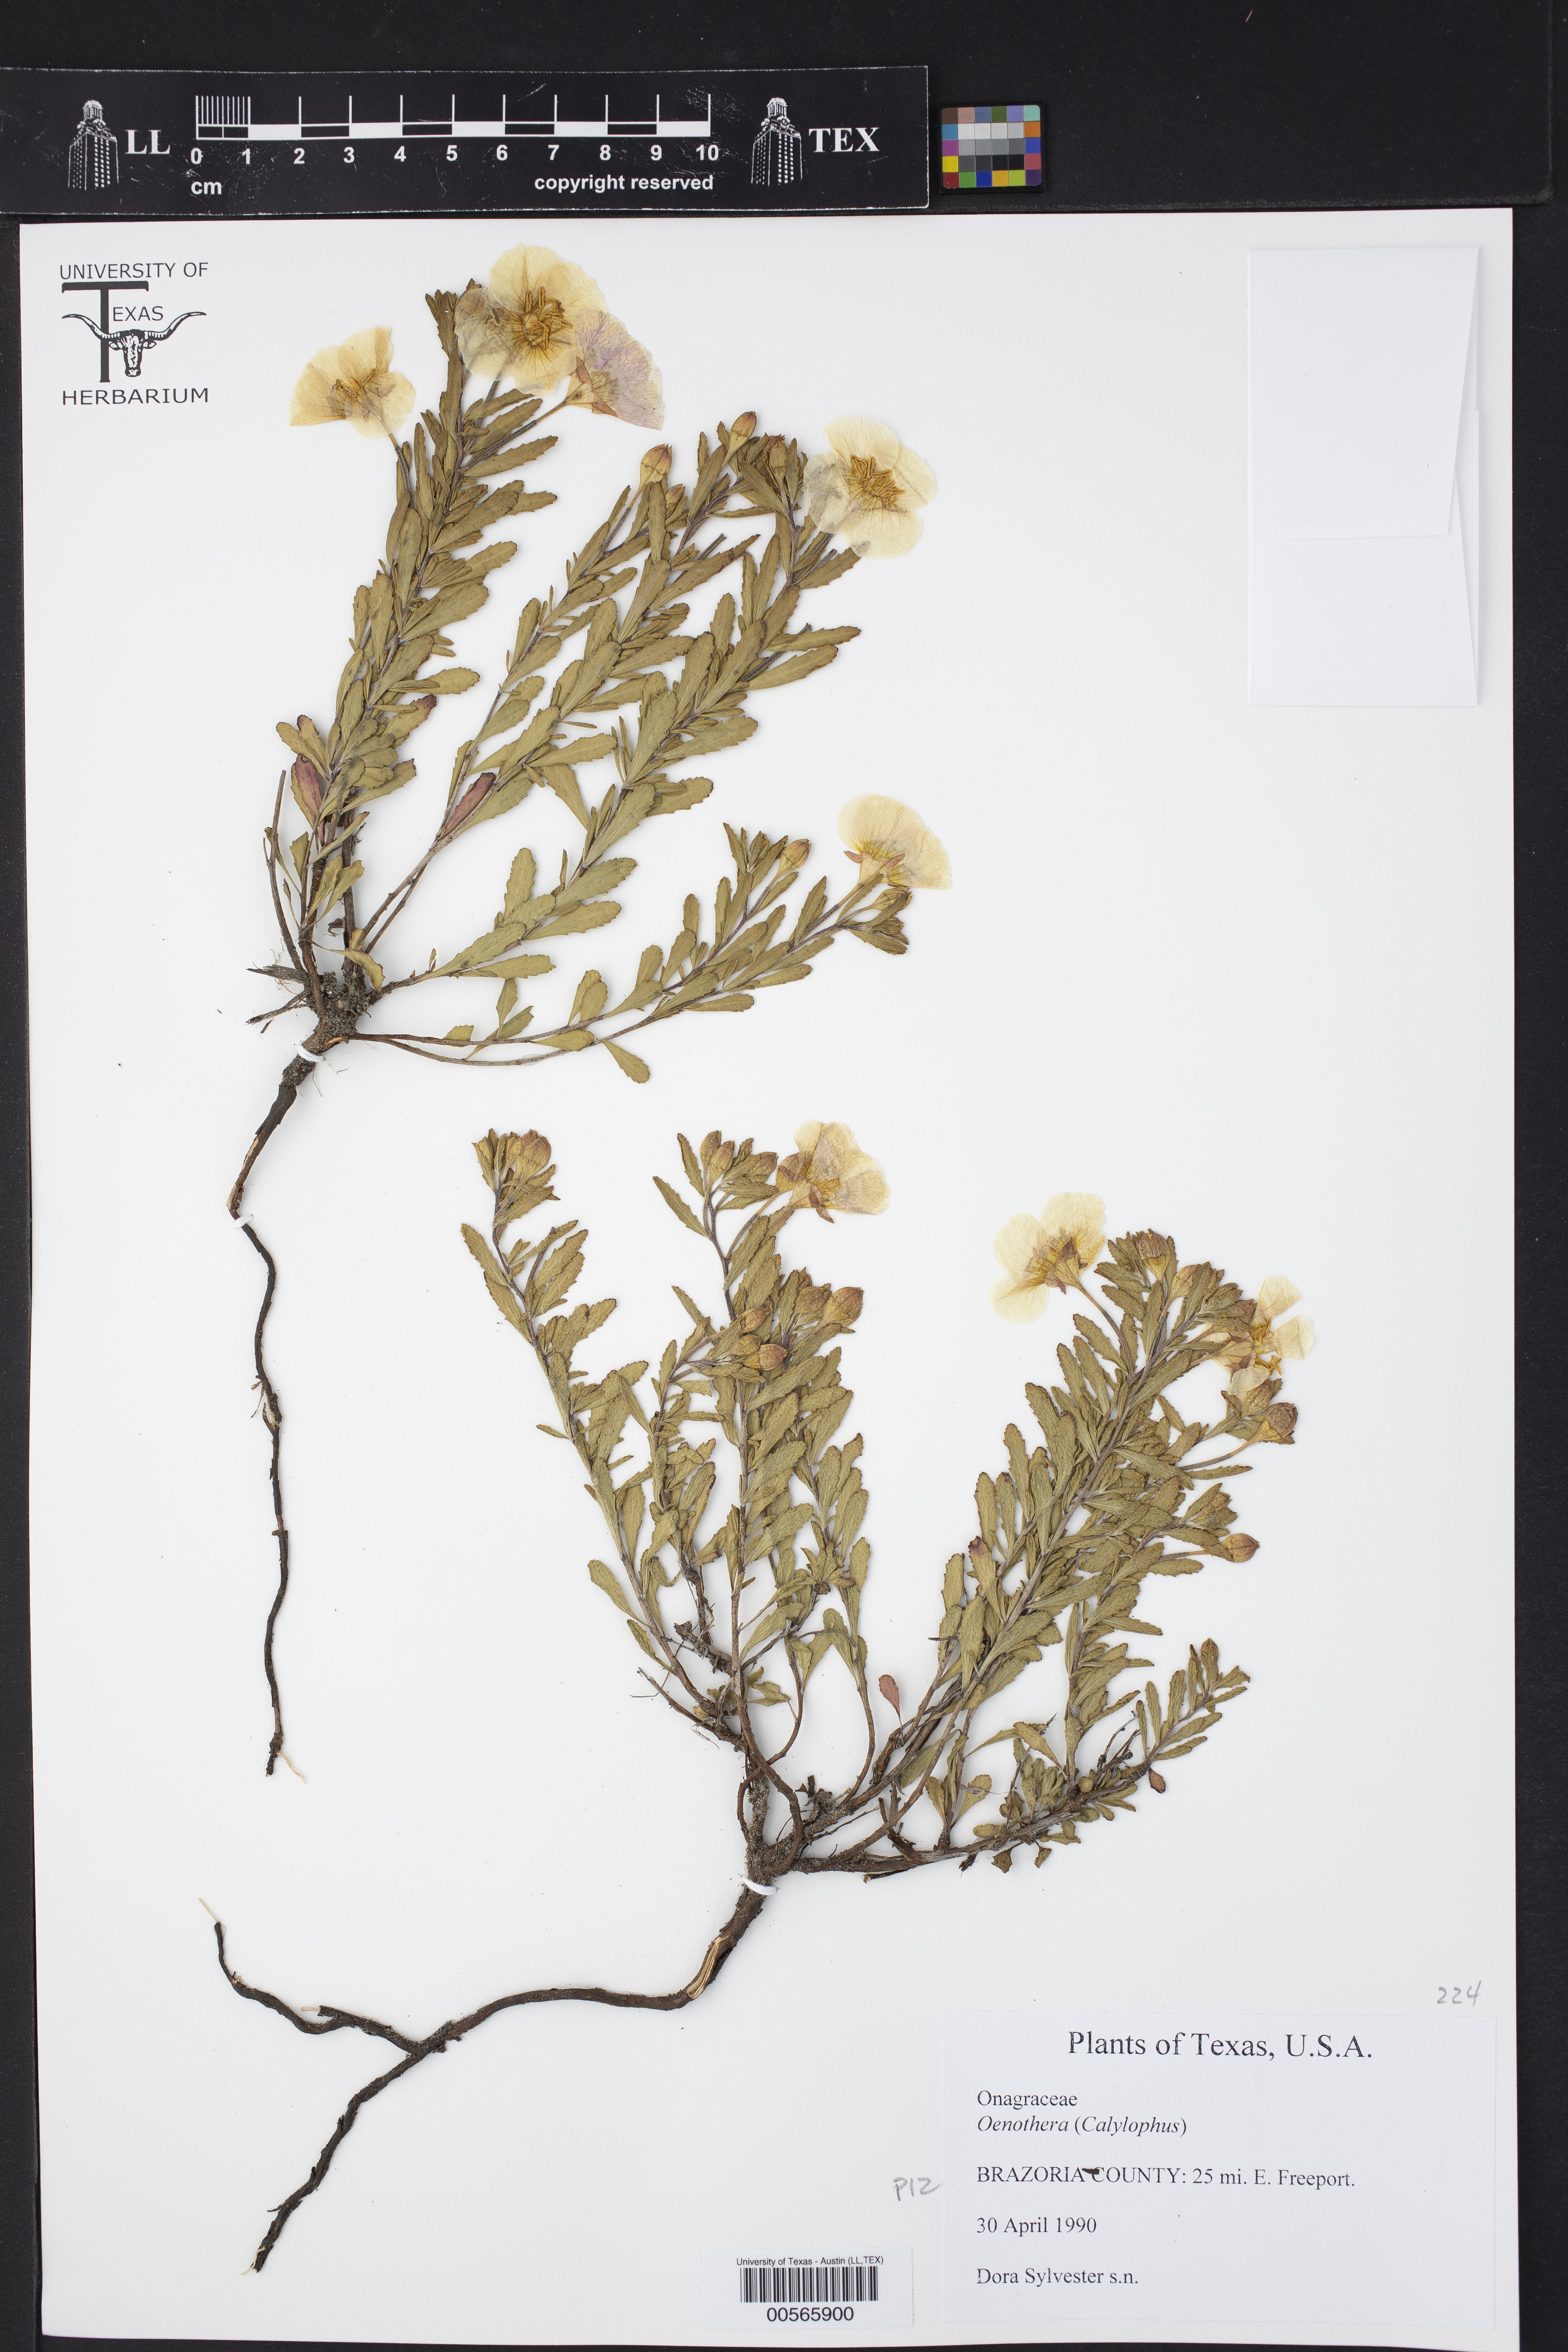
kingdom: Plantae
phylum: Tracheophyta
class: Magnoliopsida
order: Myrtales
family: Onagraceae
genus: Oenothera
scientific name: Oenothera
